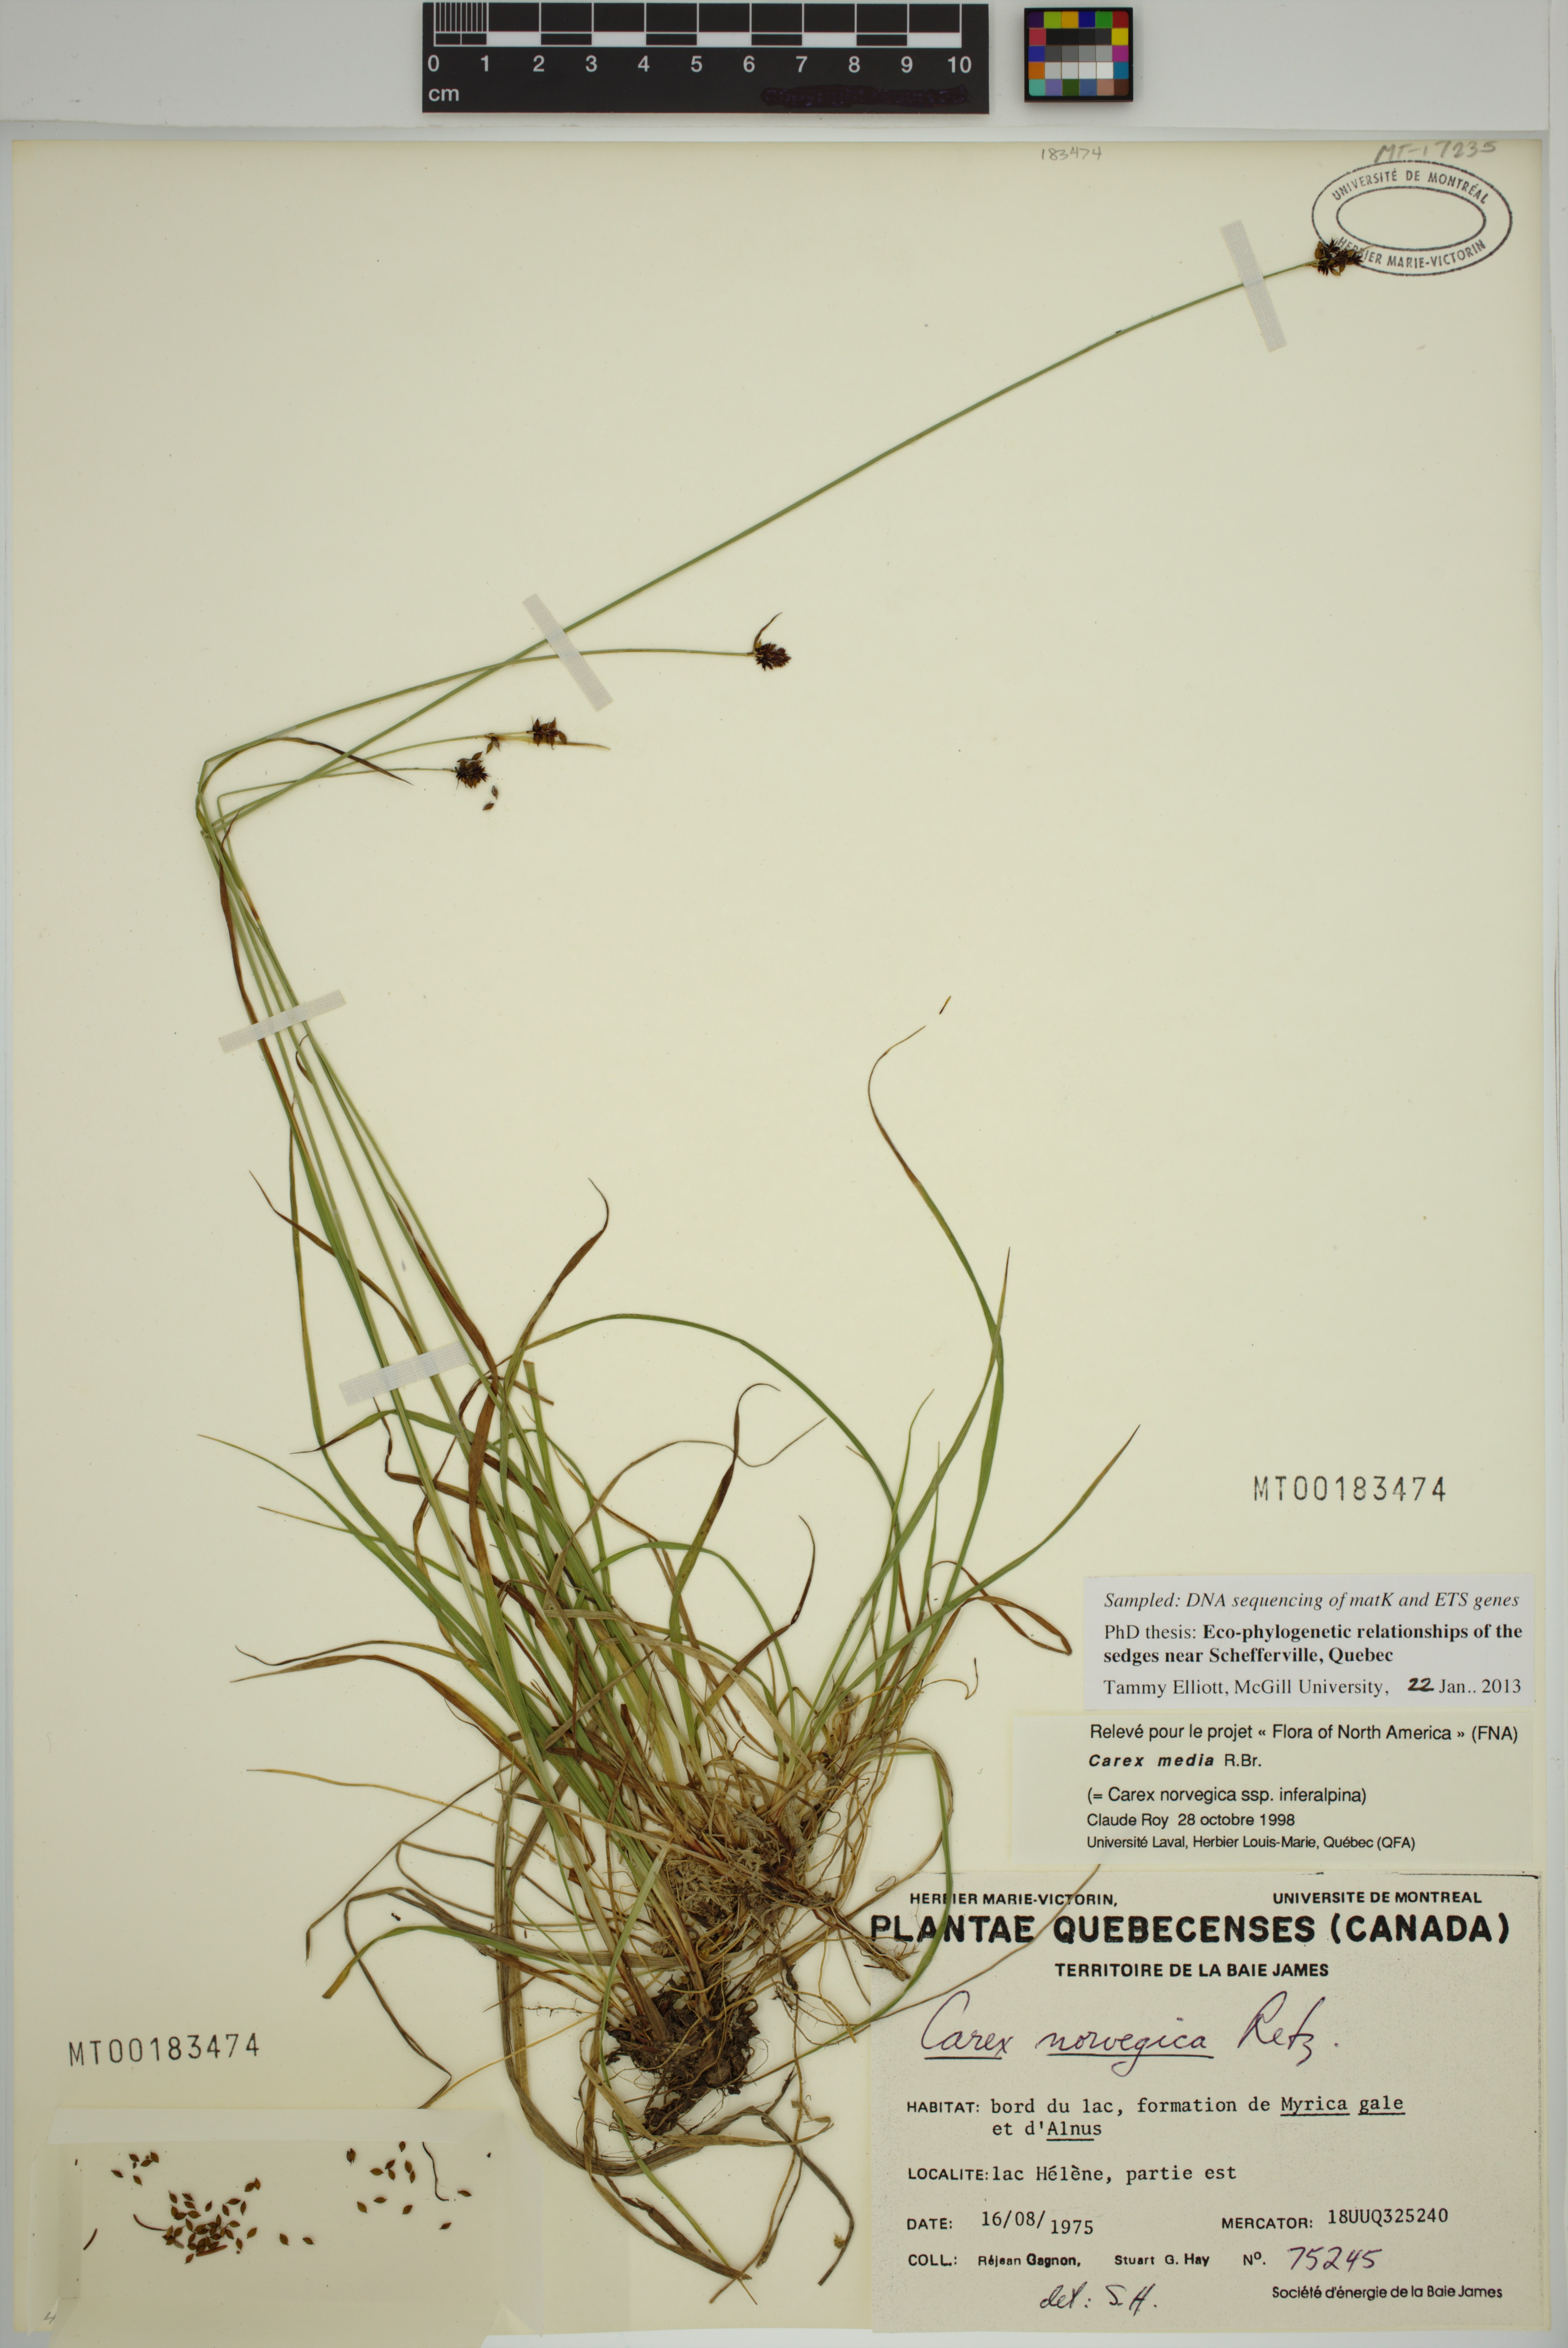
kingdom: Plantae
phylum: Tracheophyta
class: Liliopsida
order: Poales
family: Cyperaceae
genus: Carex
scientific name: Carex media
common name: Alpine sedge
